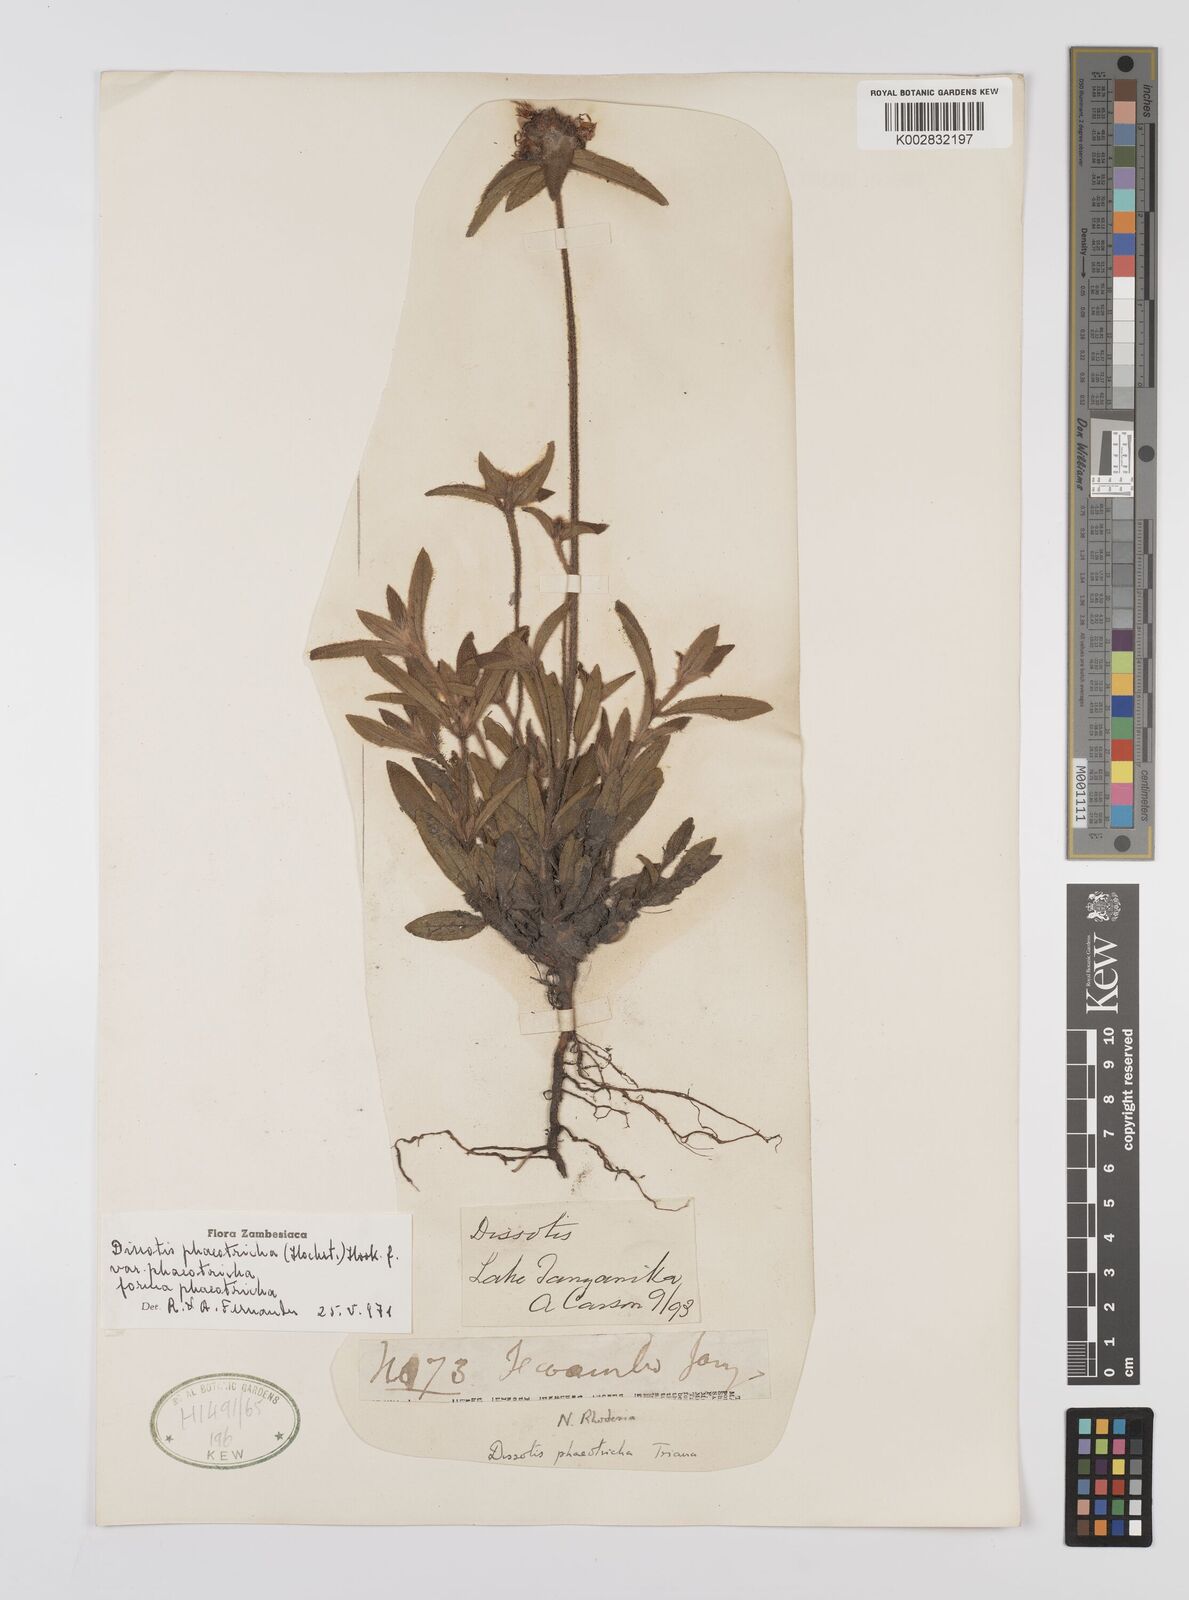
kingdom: Plantae
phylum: Tracheophyta
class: Magnoliopsida
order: Myrtales
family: Melastomataceae
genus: Antherotoma
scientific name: Antherotoma phaeotricha
